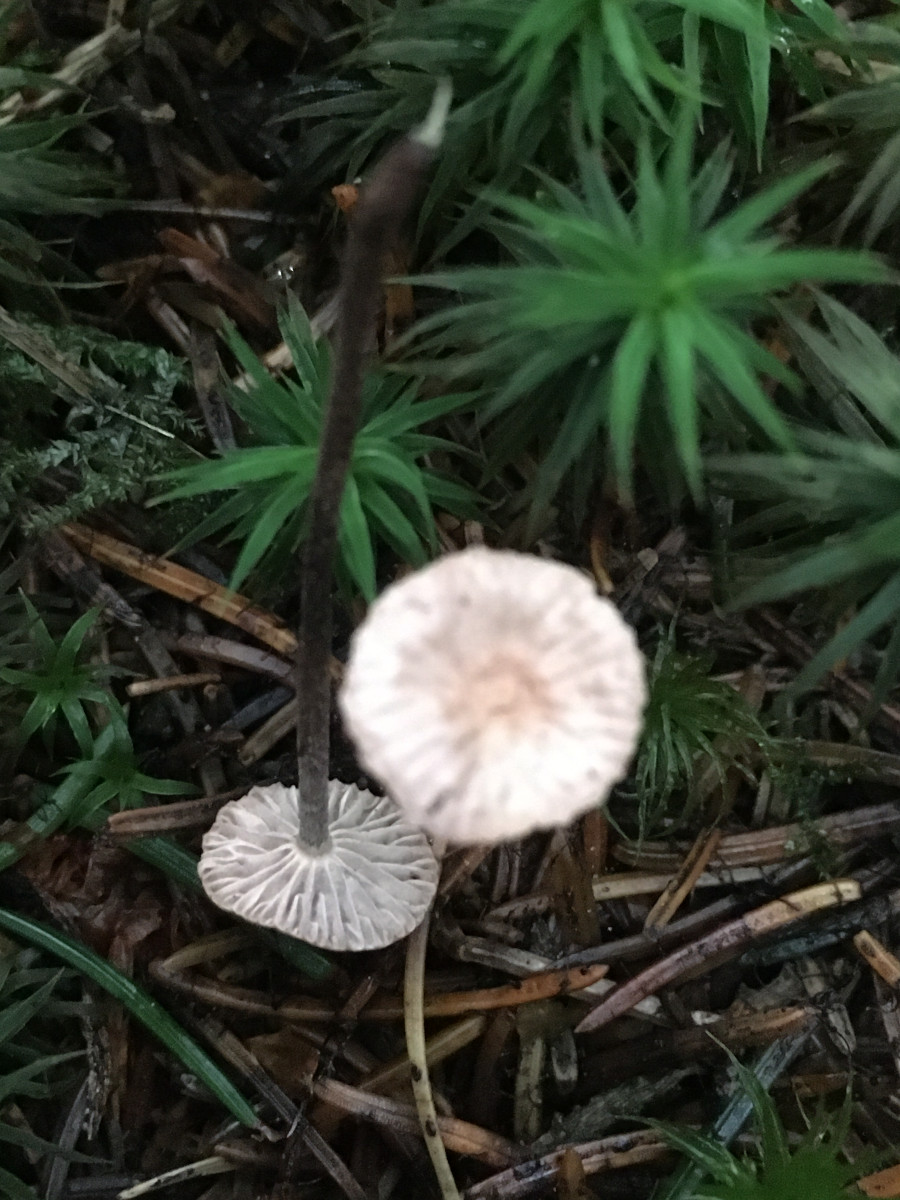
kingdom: Fungi
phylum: Basidiomycota
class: Agaricomycetes
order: Agaricales
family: Omphalotaceae
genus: Paragymnopus
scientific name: Paragymnopus perforans
